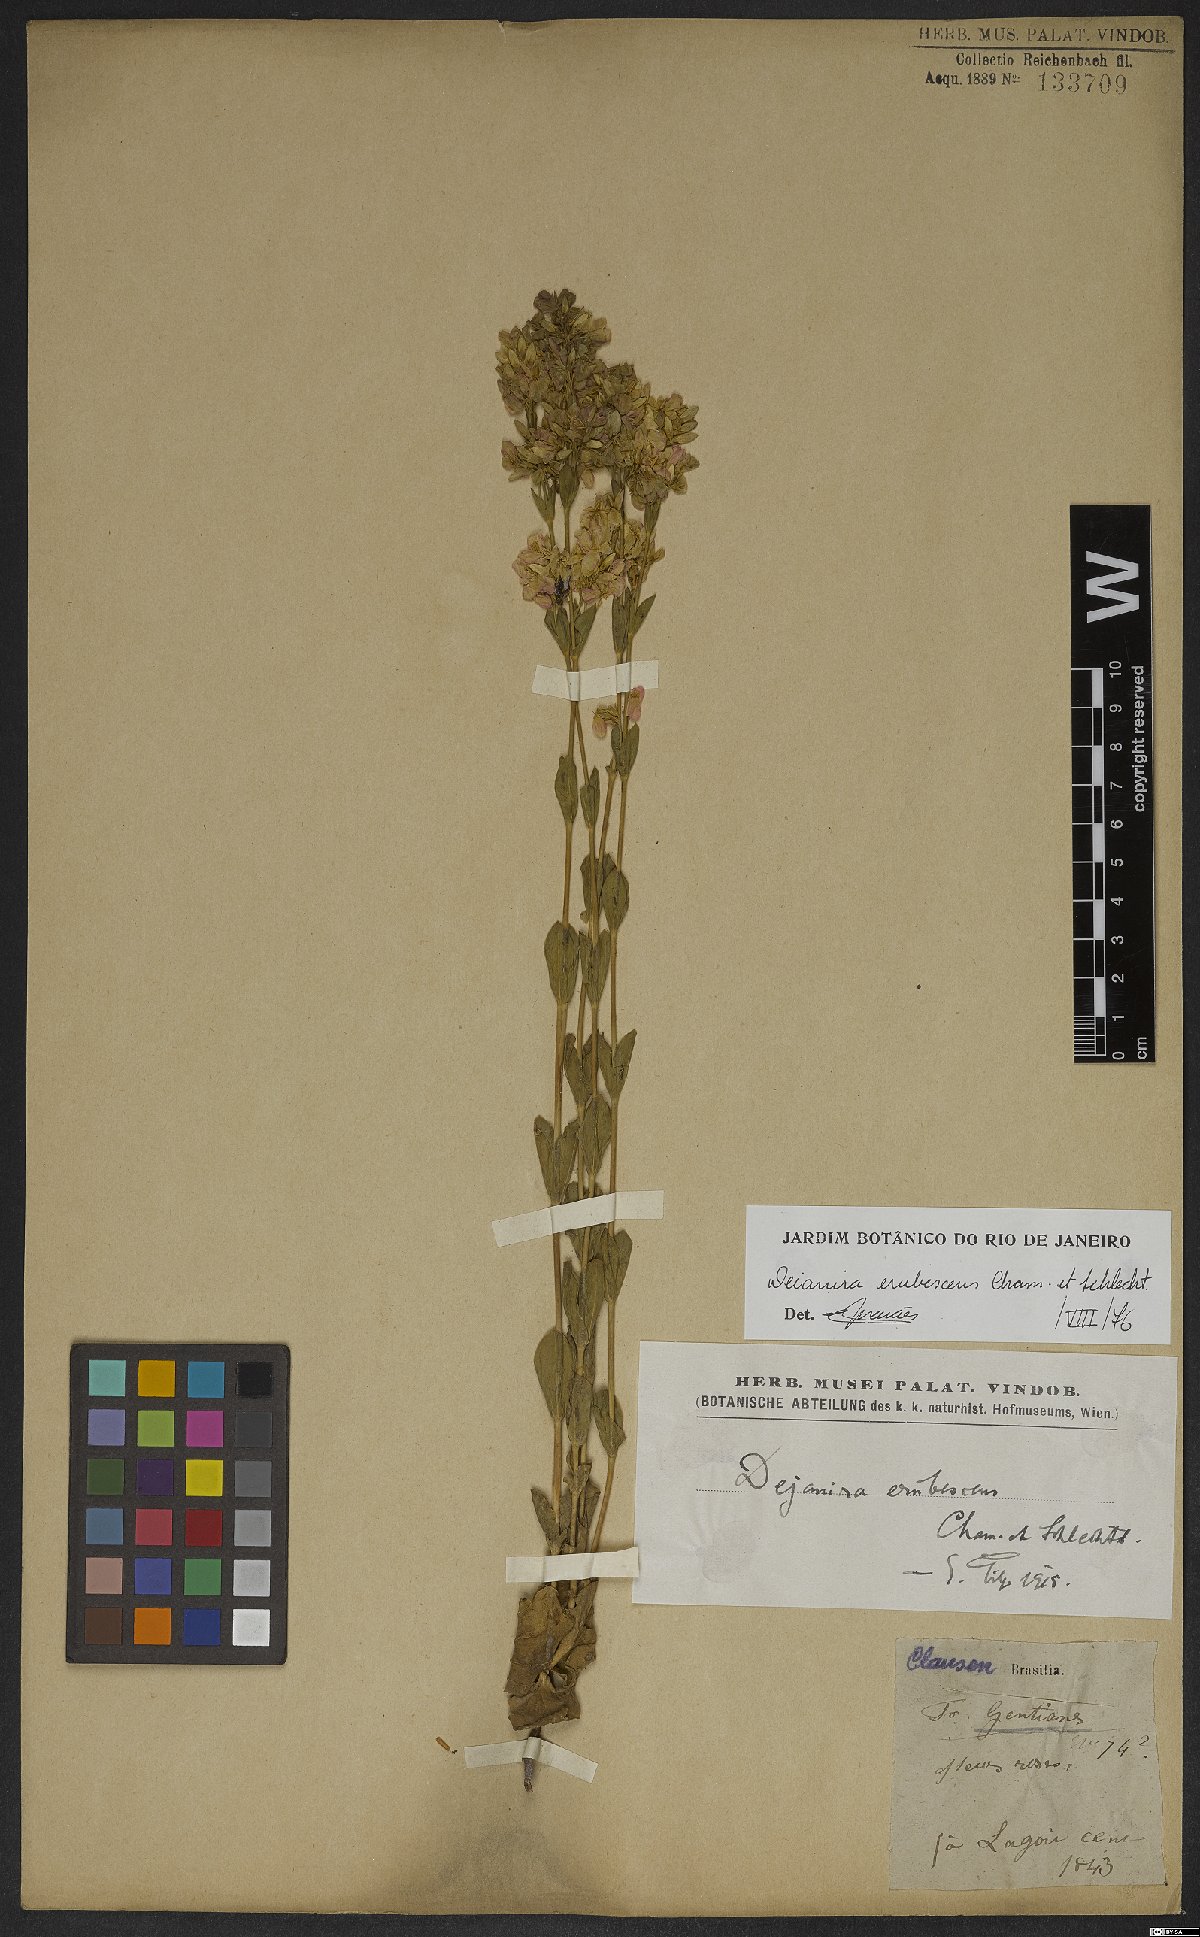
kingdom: Plantae
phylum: Tracheophyta
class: Magnoliopsida
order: Gentianales
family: Gentianaceae
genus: Deianira
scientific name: Deianira erubescens
